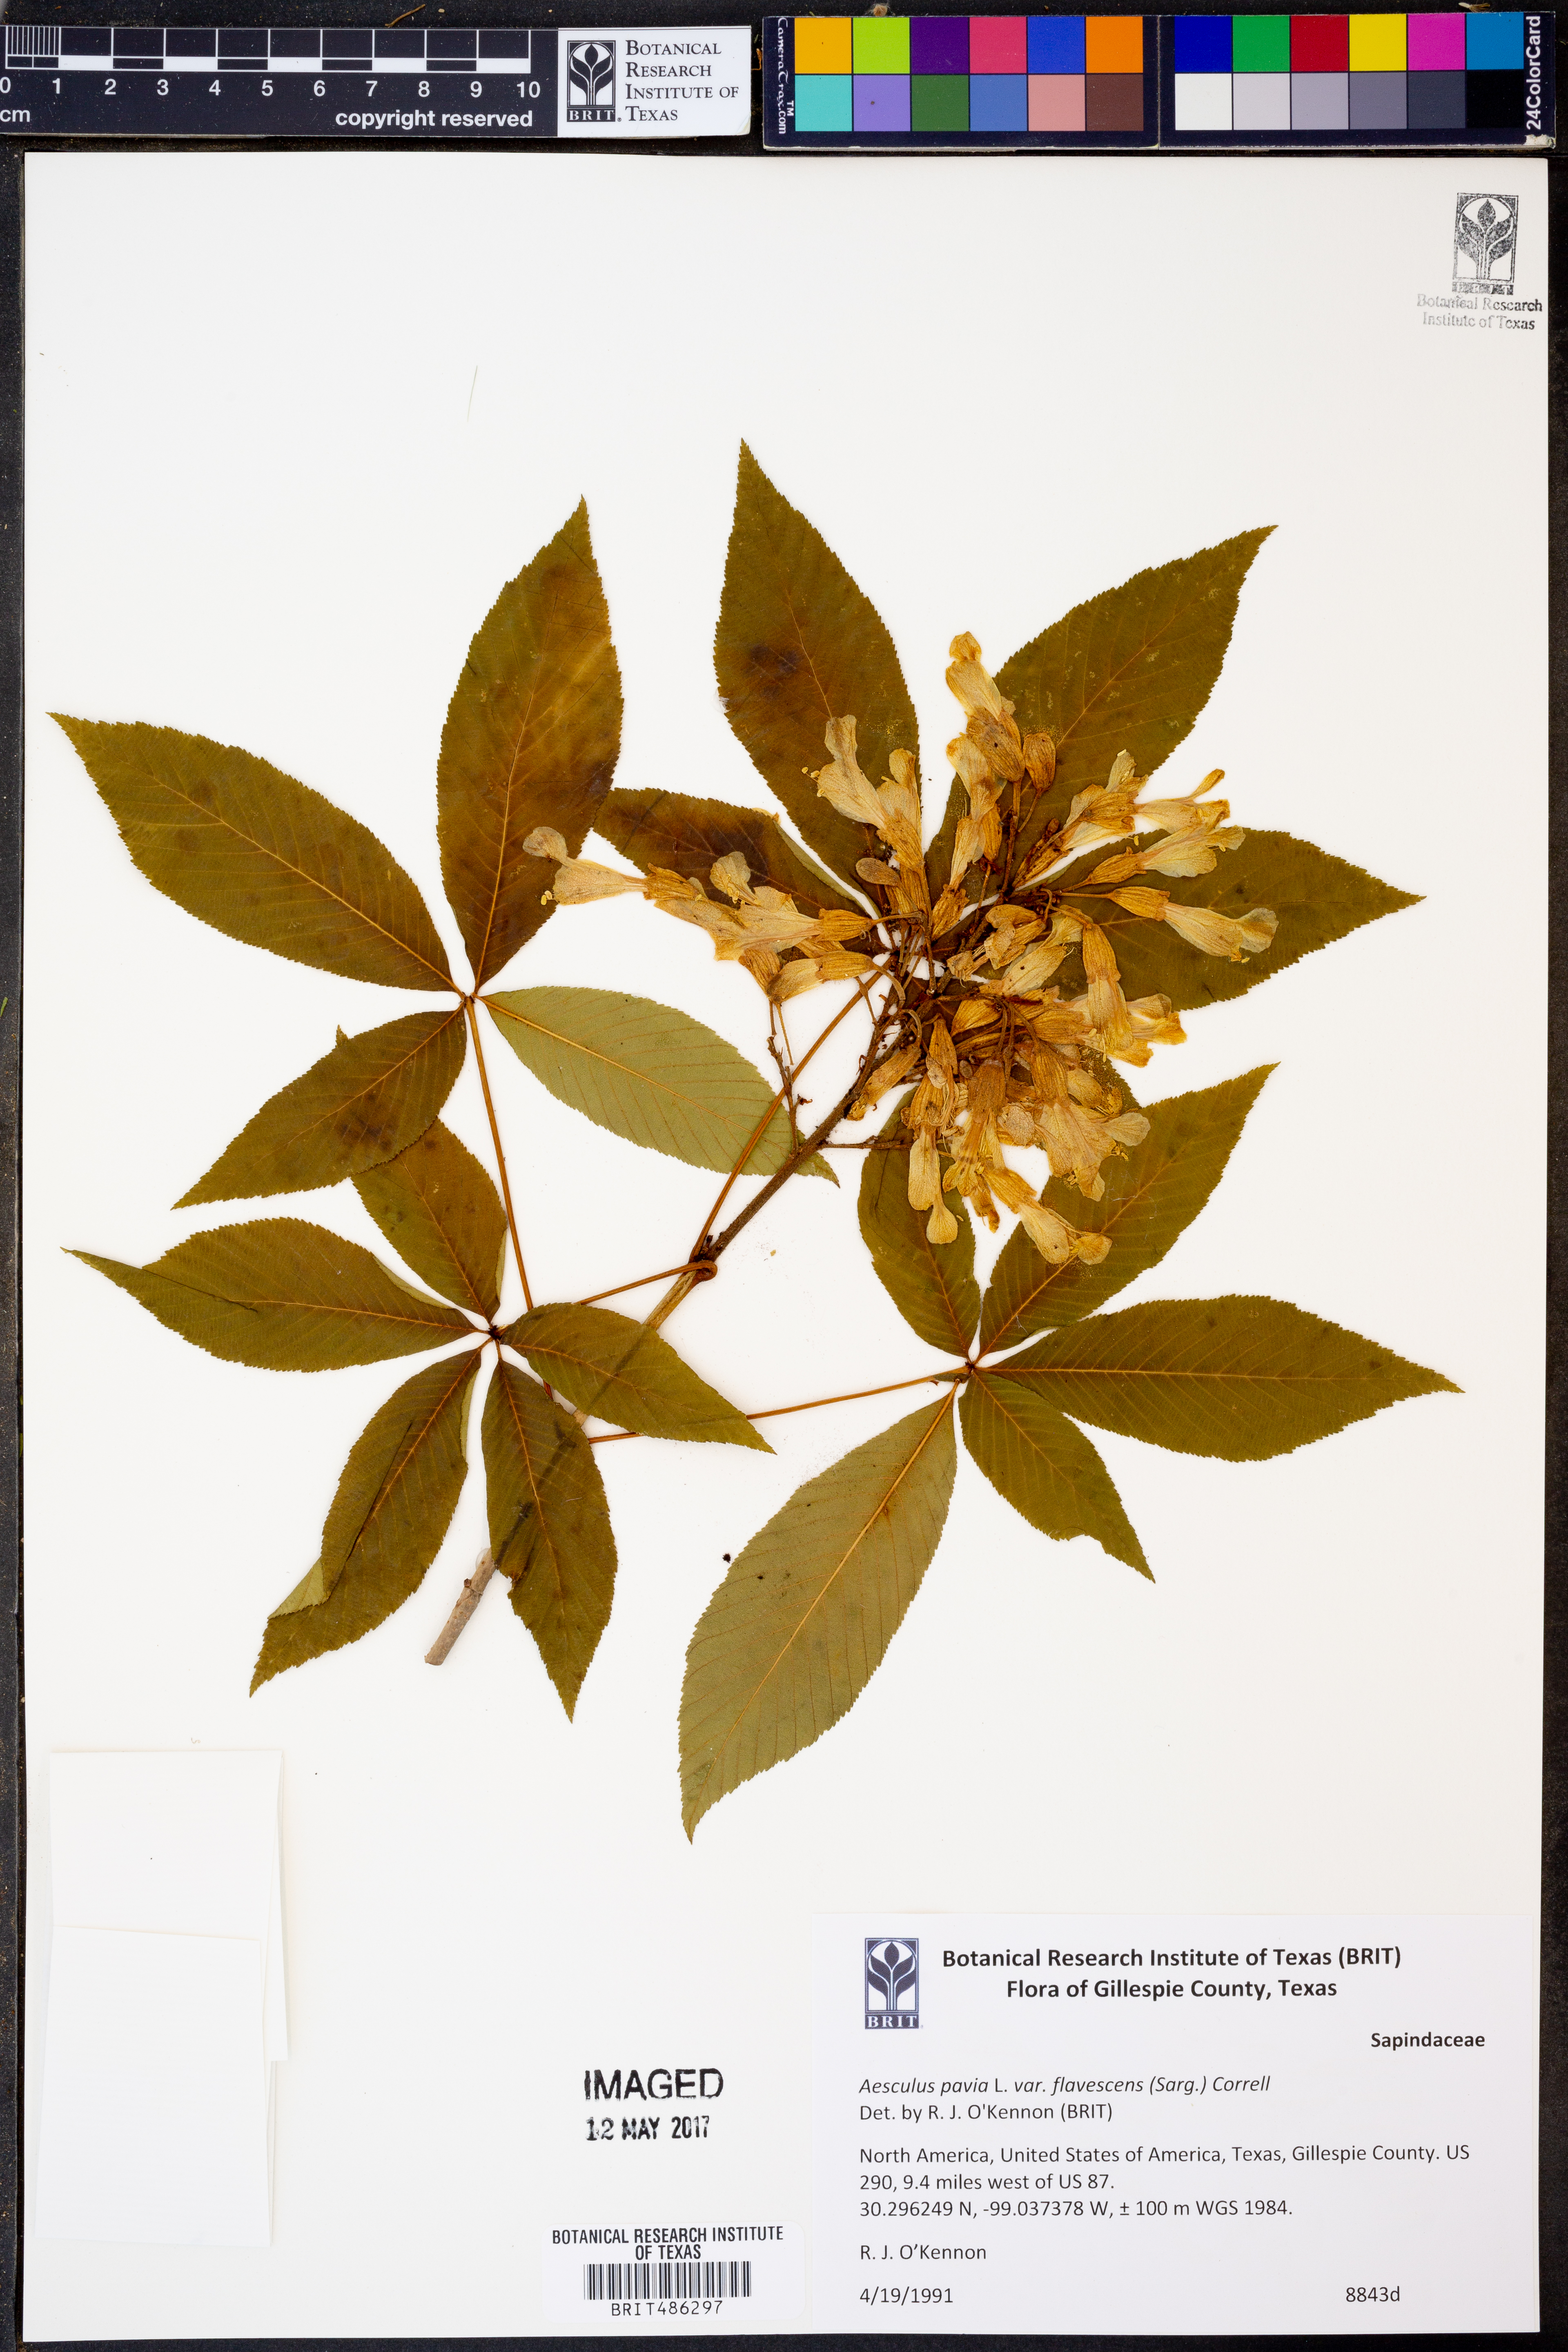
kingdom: Plantae
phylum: Tracheophyta
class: Magnoliopsida
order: Sapindales
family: Sapindaceae
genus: Aesculus
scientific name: Aesculus pavia
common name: Red buckeye
